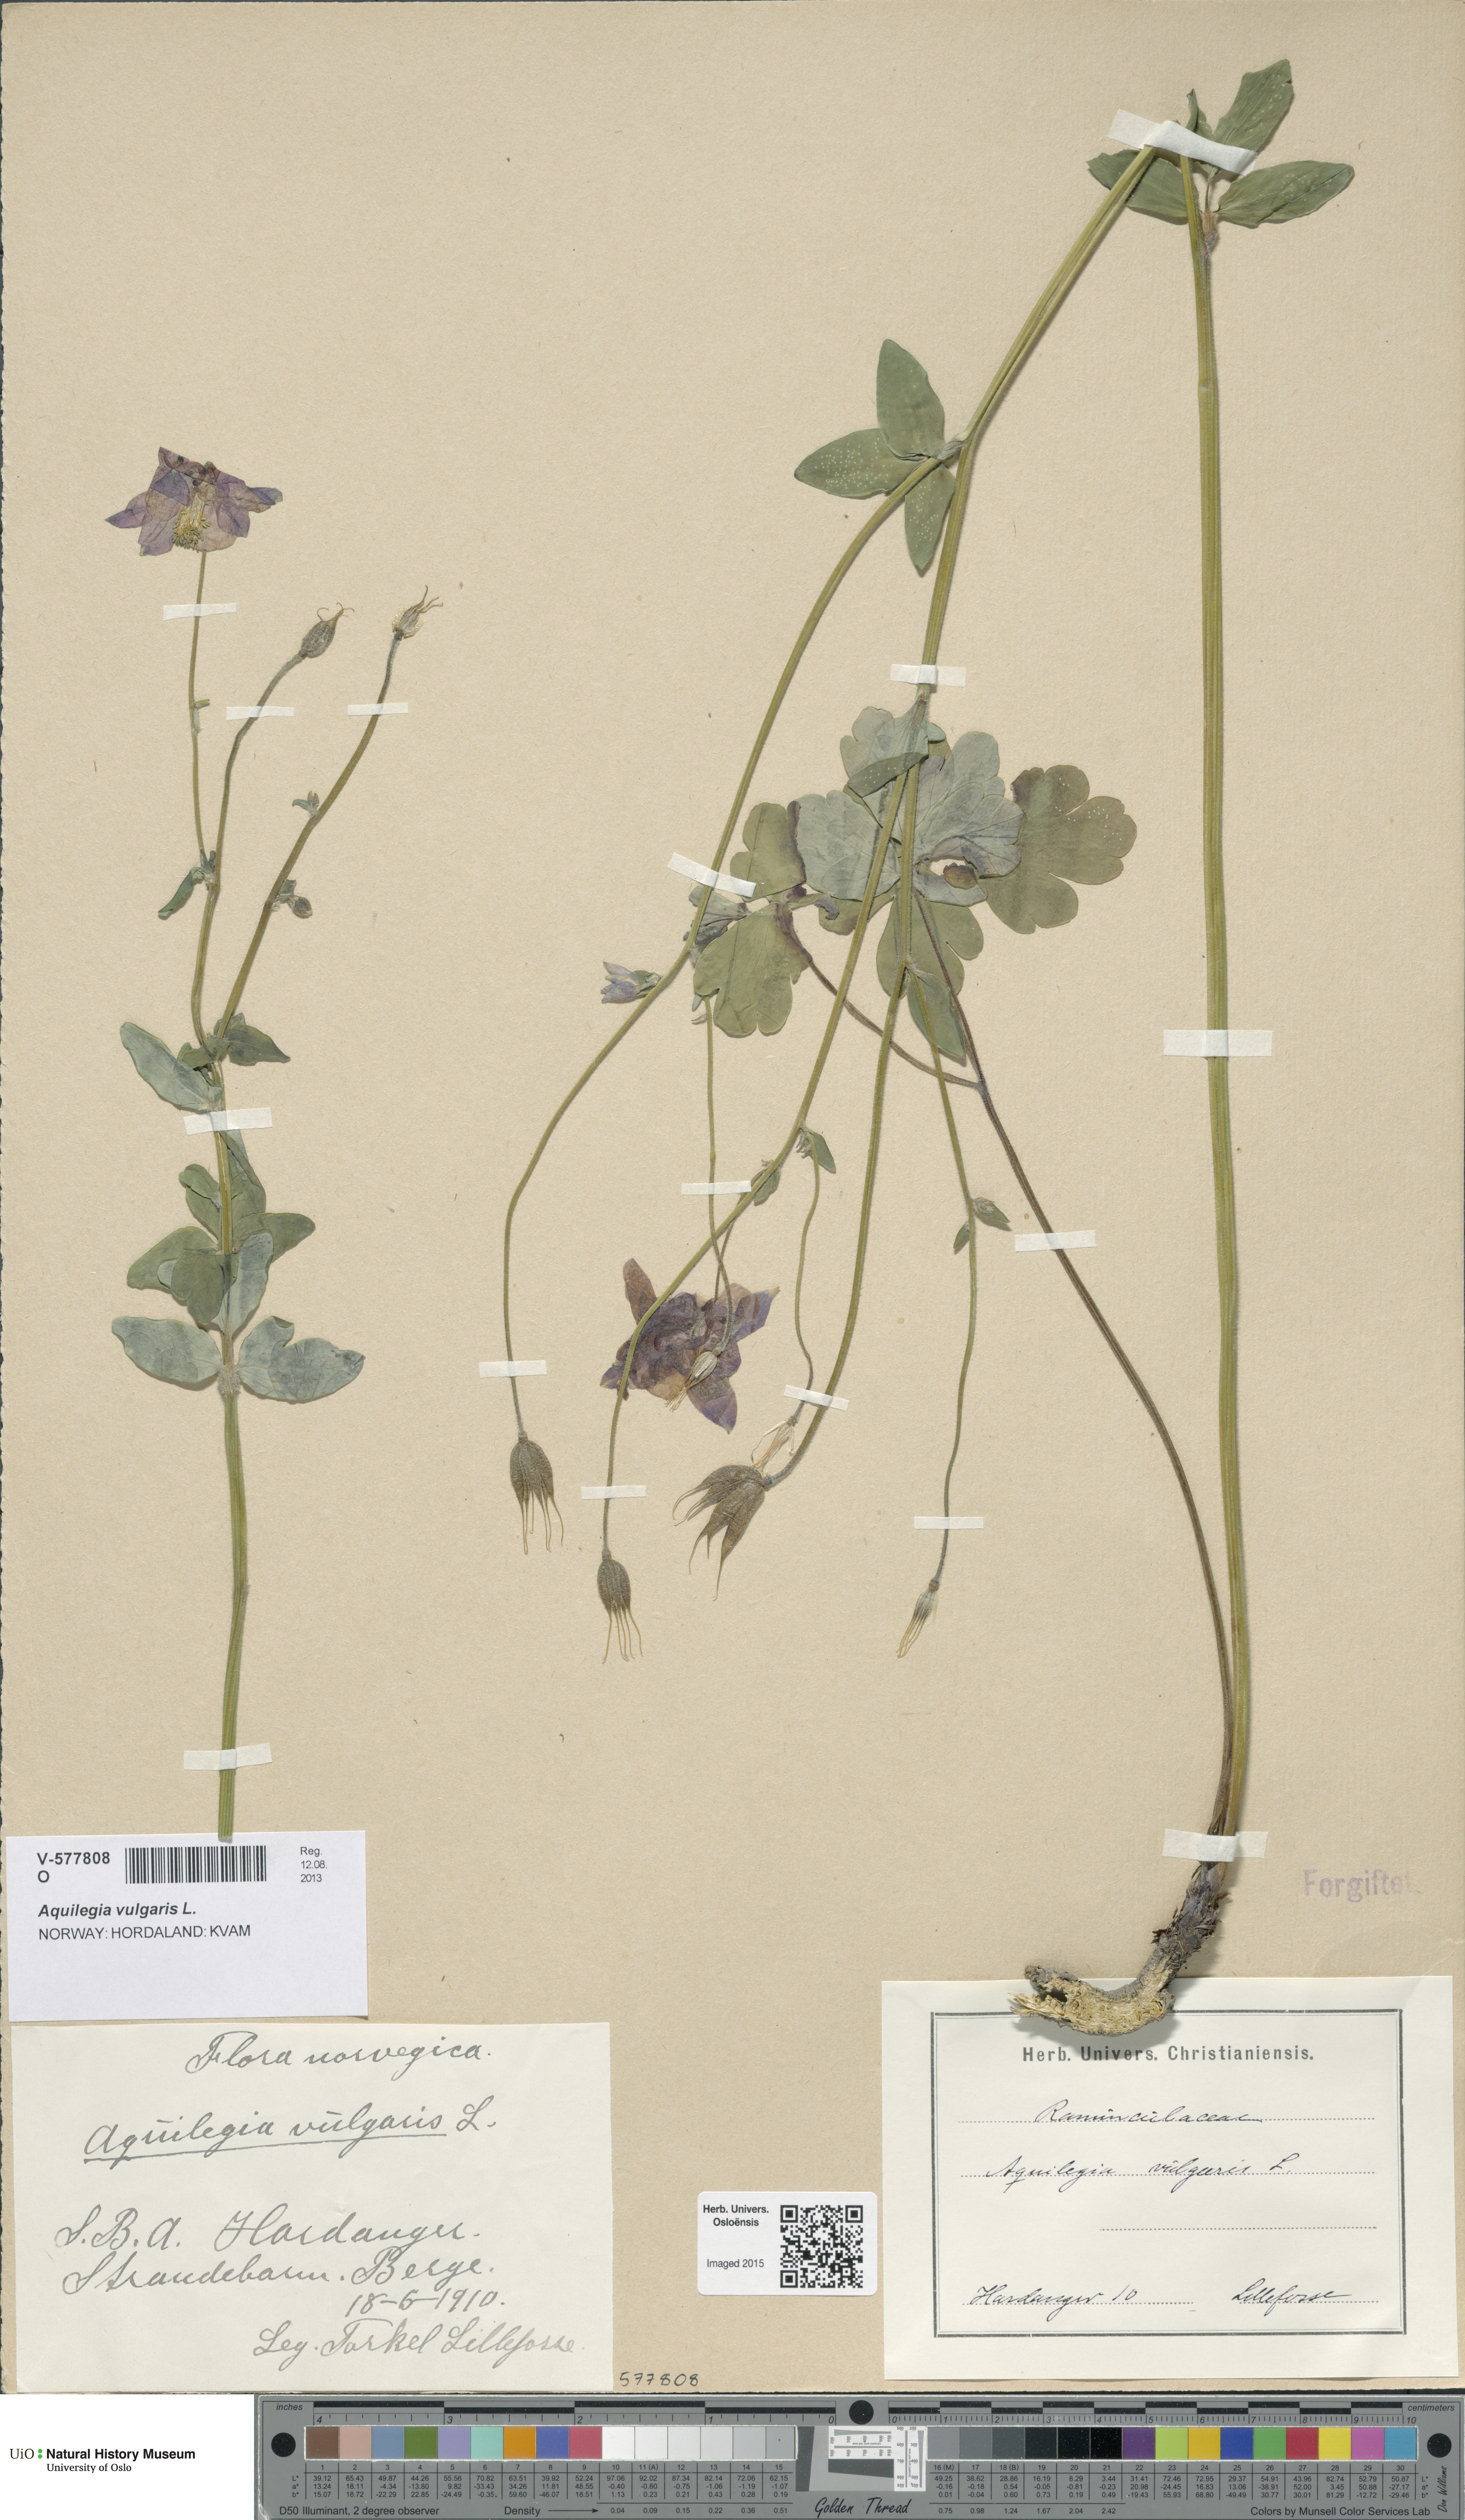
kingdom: Plantae
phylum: Tracheophyta
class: Magnoliopsida
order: Ranunculales
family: Ranunculaceae
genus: Aquilegia
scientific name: Aquilegia vulgaris
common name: Columbine
